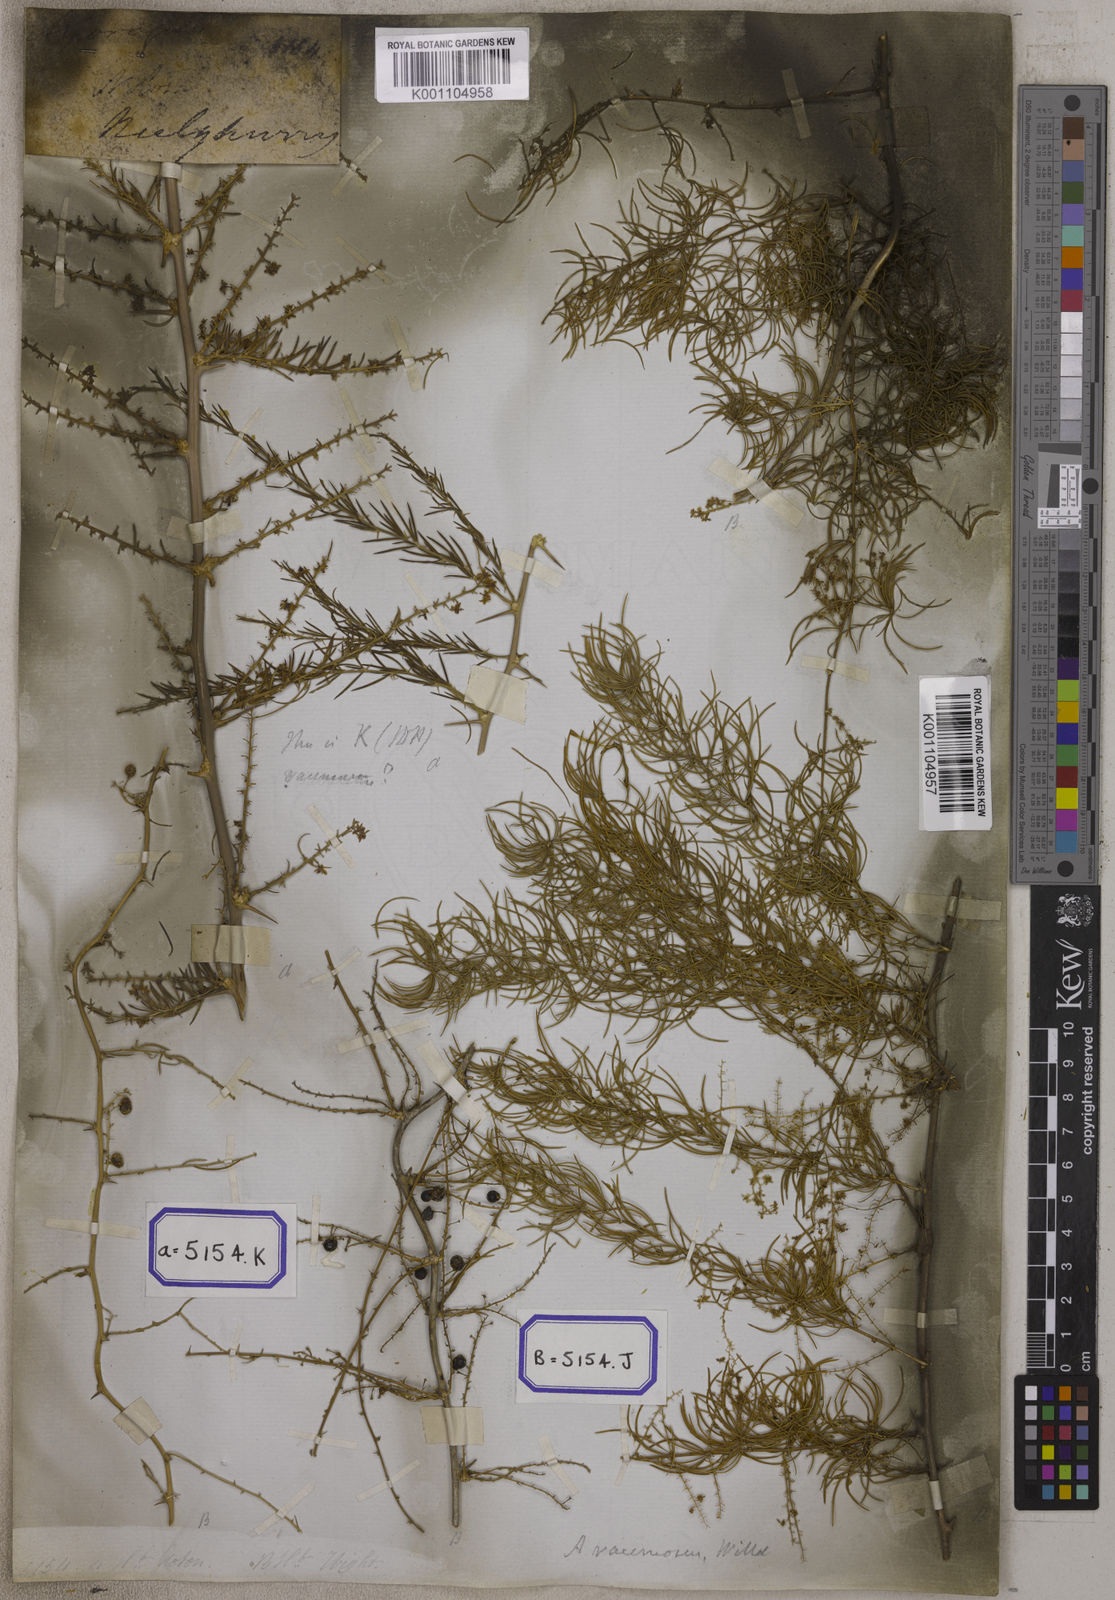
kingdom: Plantae
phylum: Tracheophyta
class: Liliopsida
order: Asparagales
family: Asparagaceae
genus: Asparagus
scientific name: Asparagus
